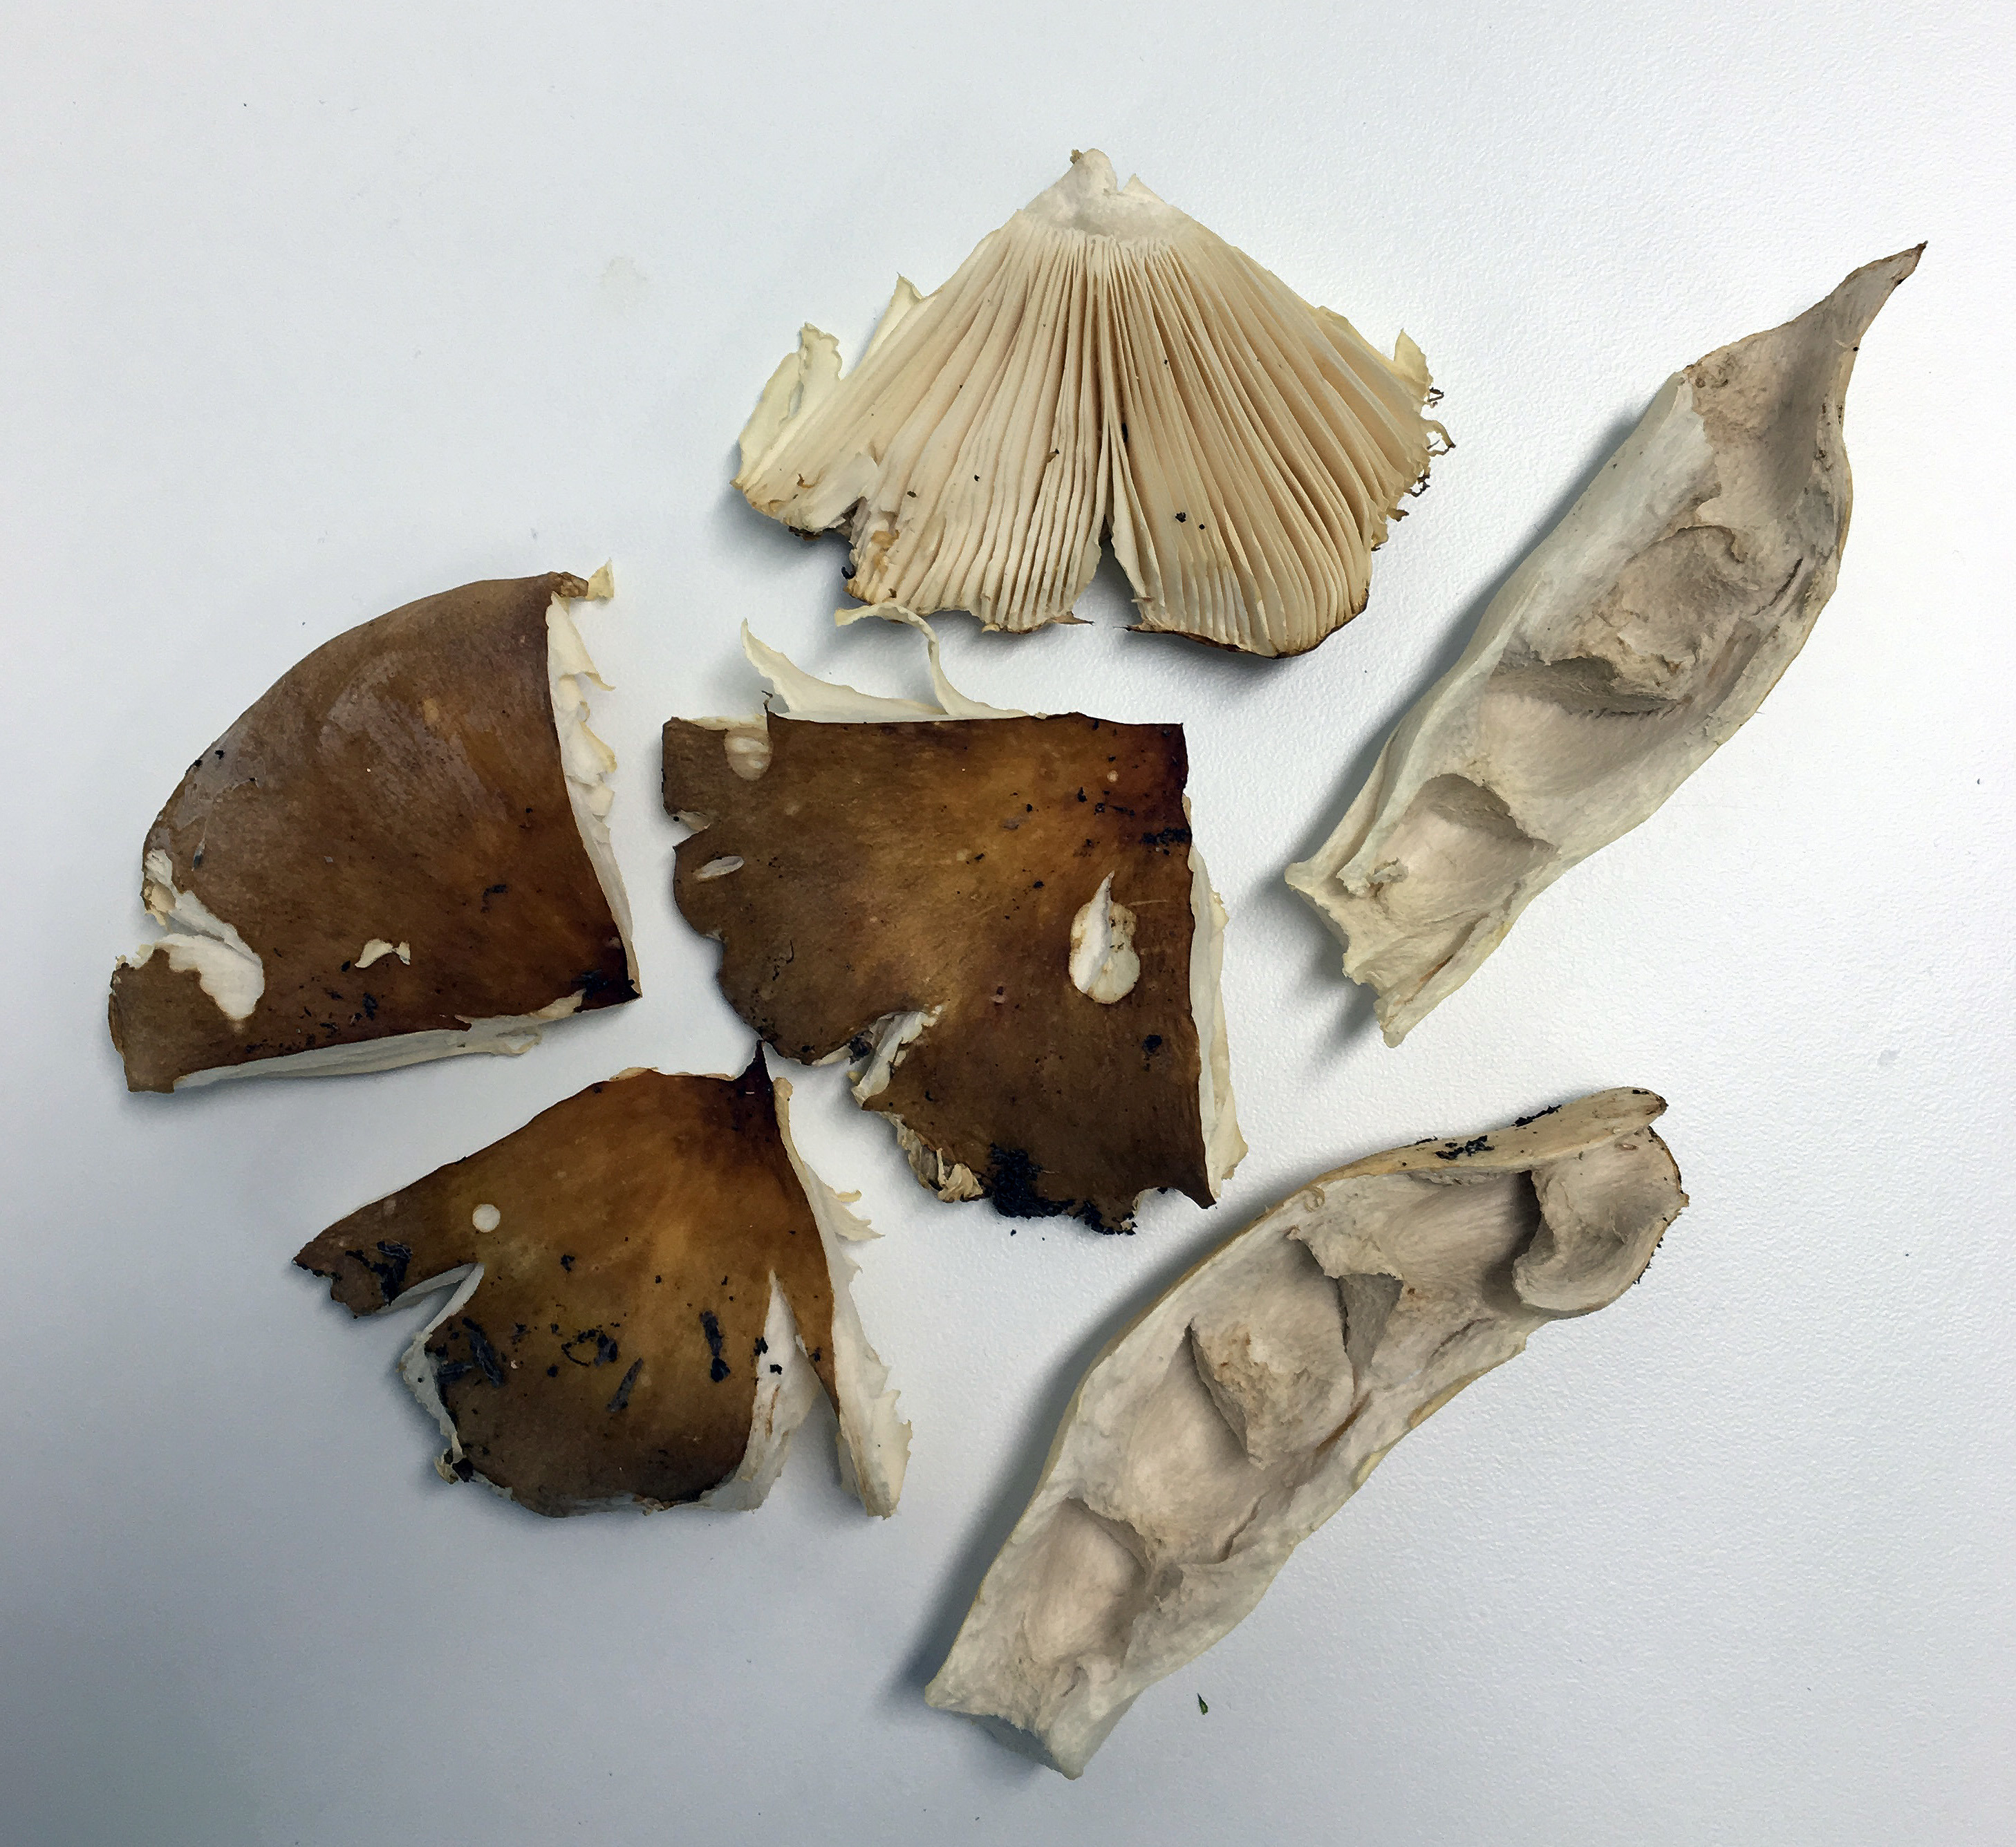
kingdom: Fungi
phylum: Basidiomycota
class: Agaricomycetes
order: Russulales
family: Russulaceae
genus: Russula
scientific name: Russula mustelina
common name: Russet brittlegill
